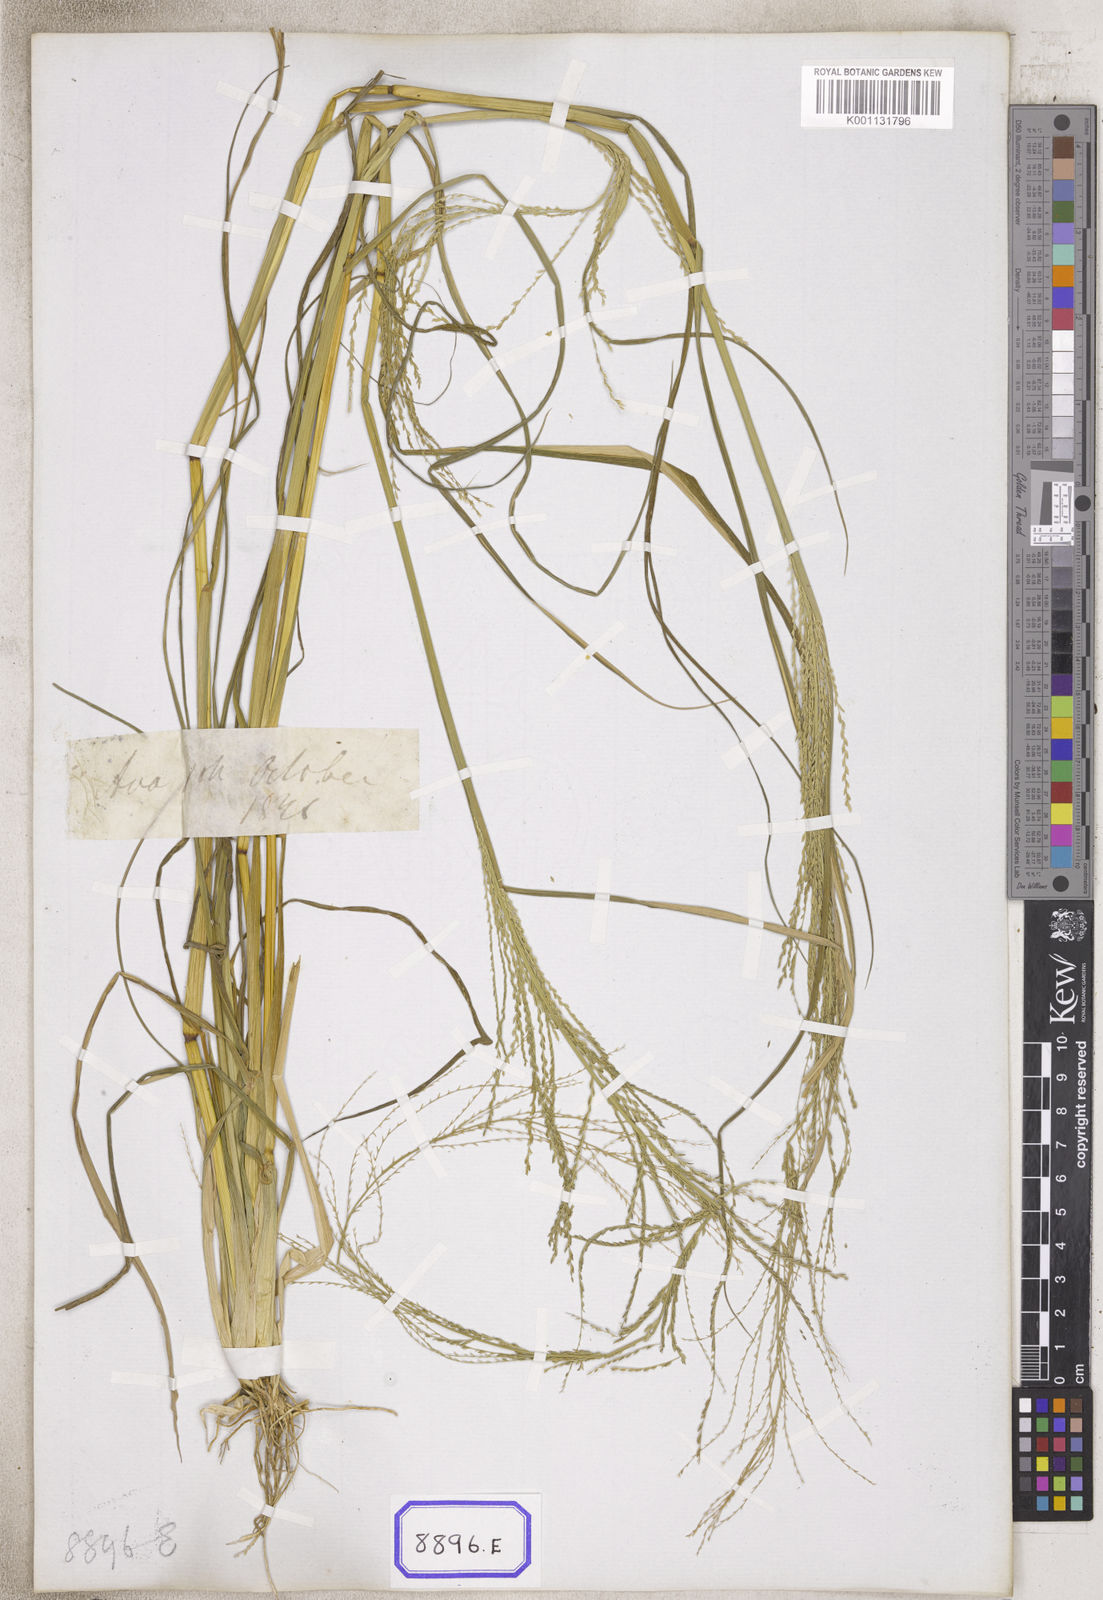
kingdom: Plantae
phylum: Tracheophyta
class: Liliopsida
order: Poales
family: Poaceae
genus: Leptochloa
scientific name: Leptochloa chinensis
